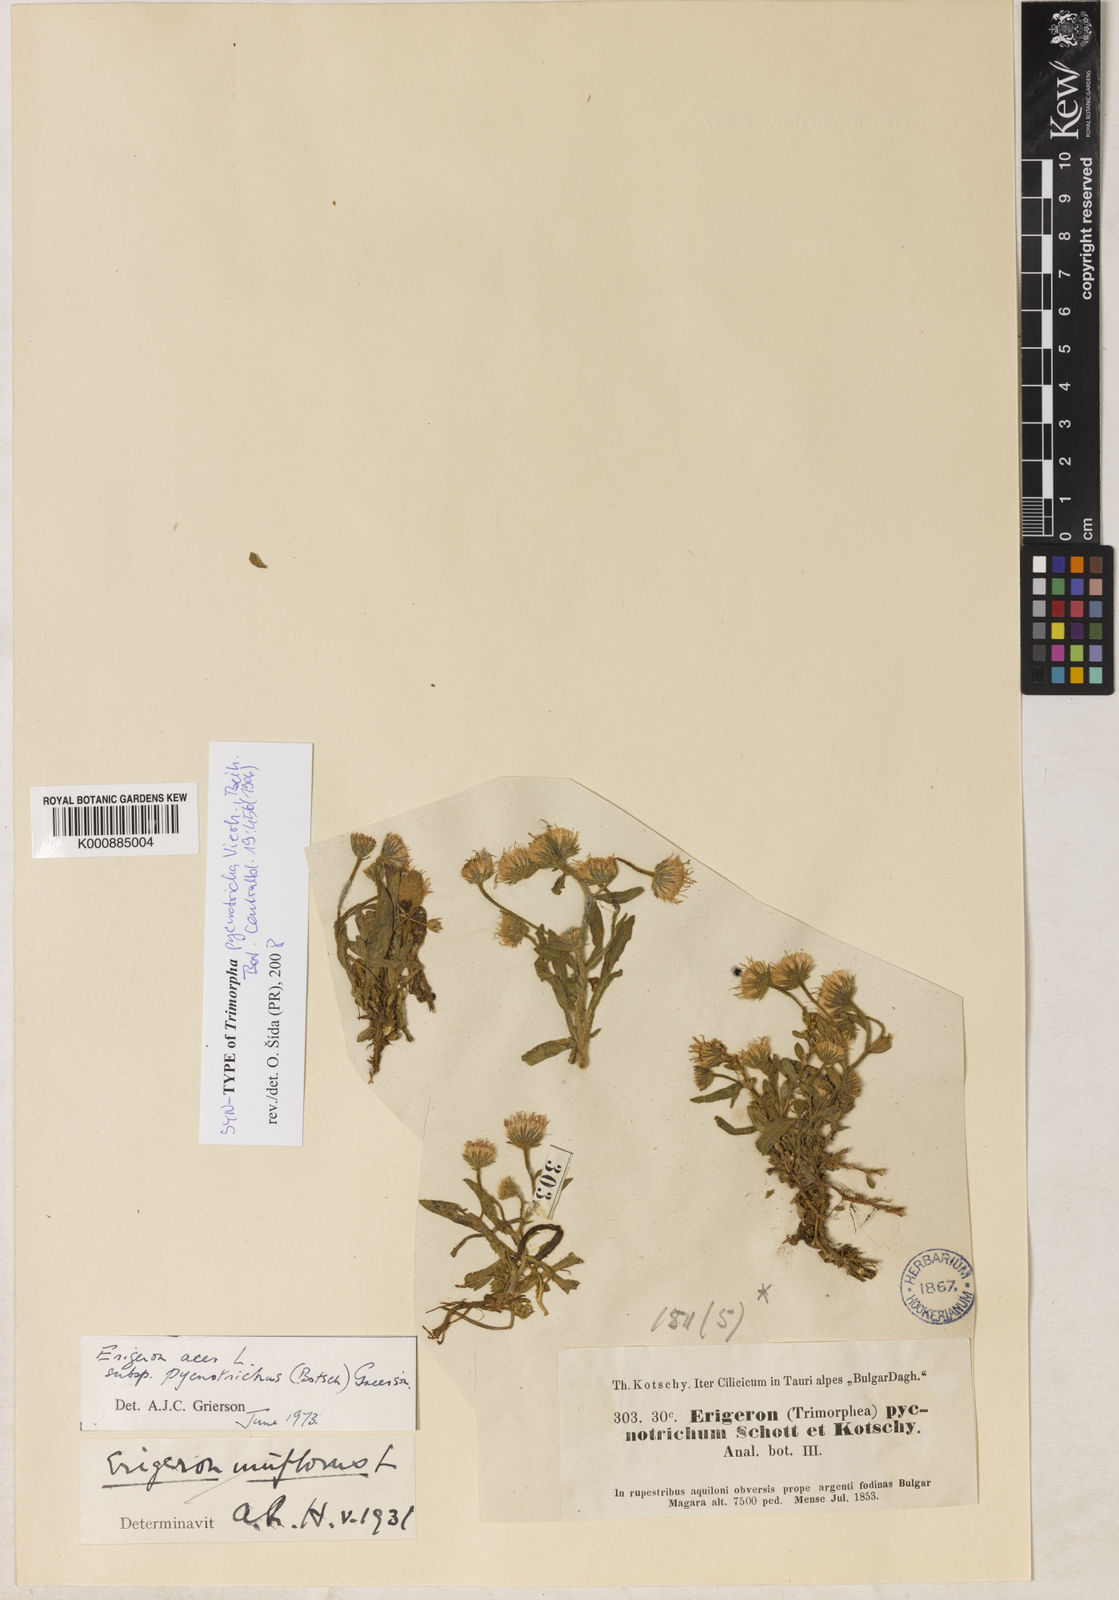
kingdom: Plantae
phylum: Tracheophyta
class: Magnoliopsida
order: Asterales
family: Asteraceae
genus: Erigeron
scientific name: Erigeron acris
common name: Blue fleabane
